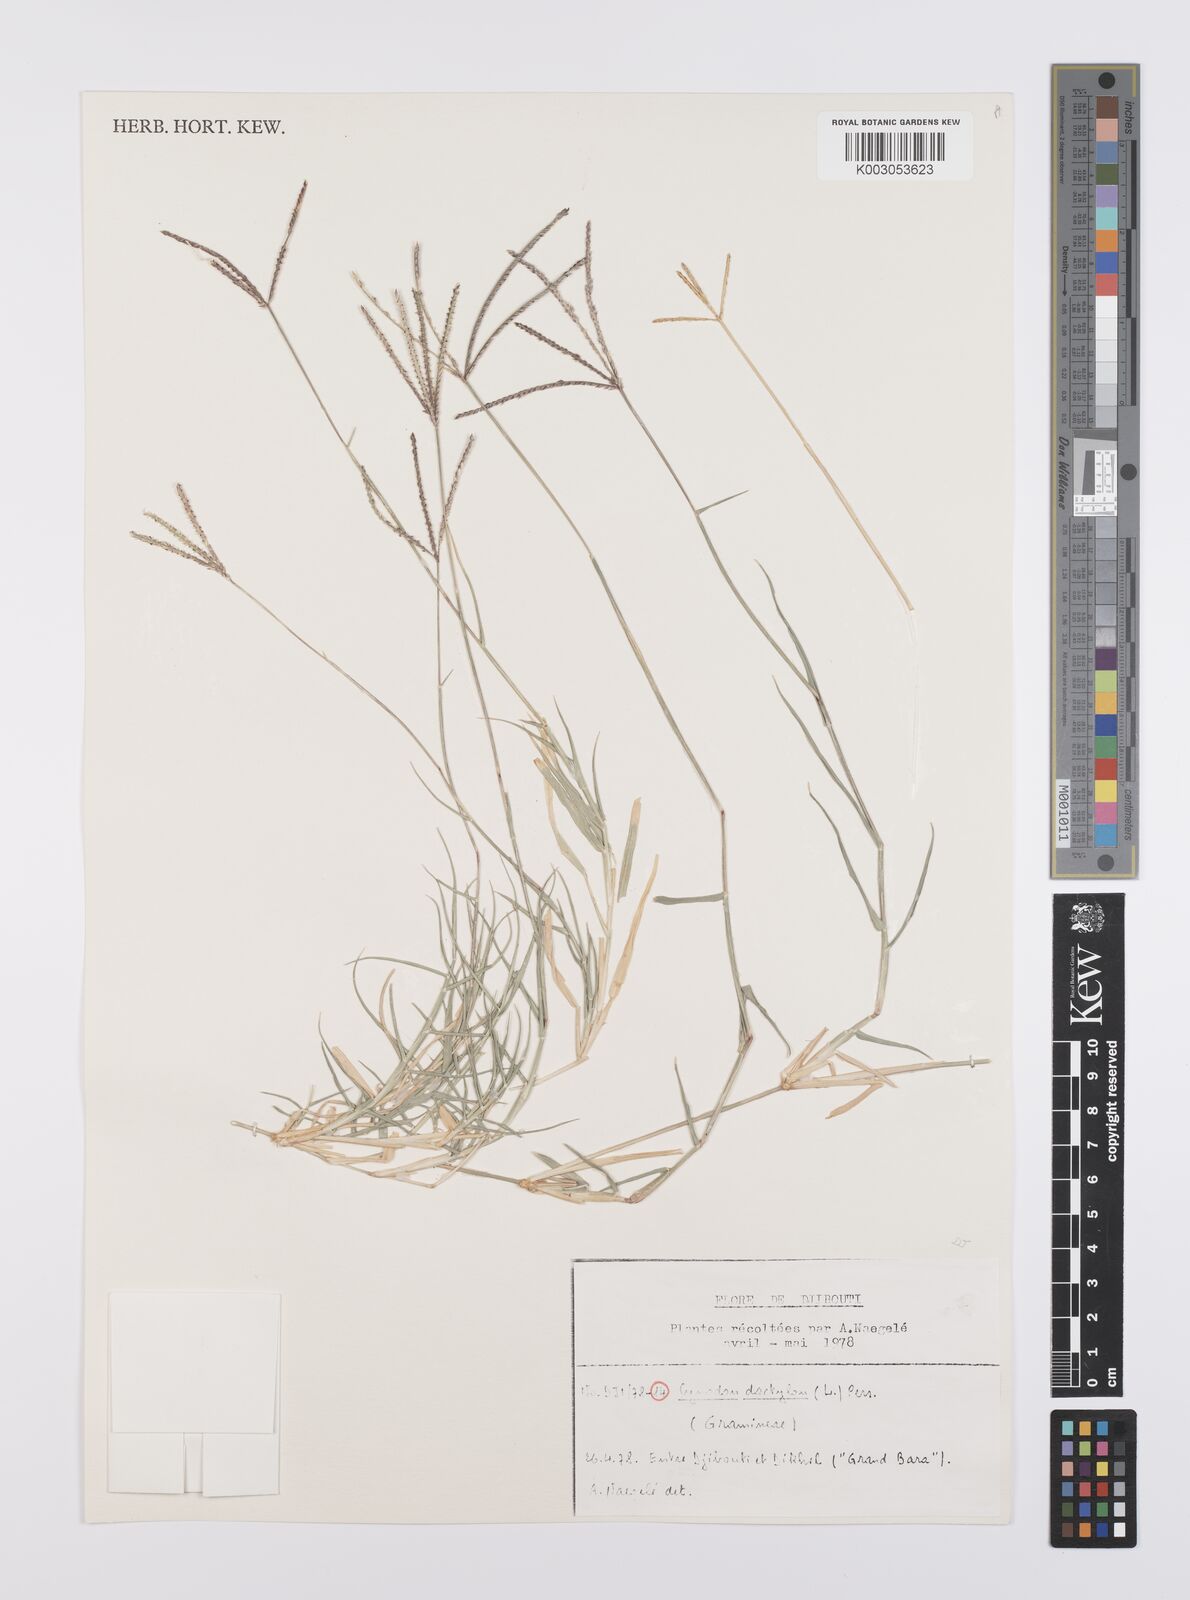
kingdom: Plantae
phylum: Tracheophyta
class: Liliopsida
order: Poales
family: Poaceae
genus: Cynodon
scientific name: Cynodon dactylon
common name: Bermuda grass
